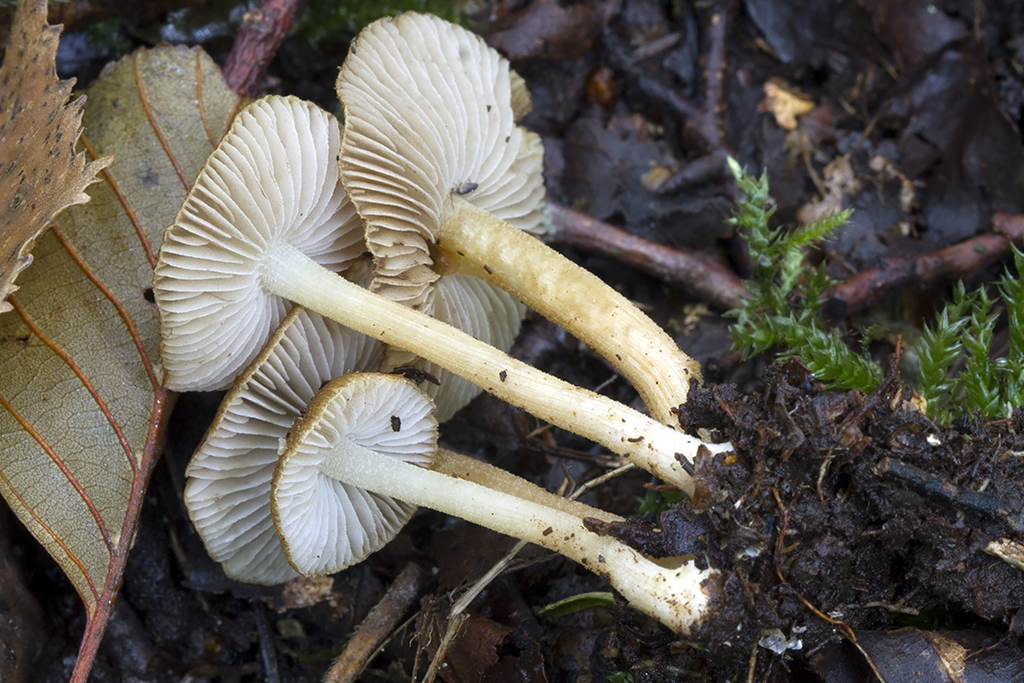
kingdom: Fungi
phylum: Basidiomycota
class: Agaricomycetes
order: Agaricales
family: Inocybaceae
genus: Inocybe
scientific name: Inocybe humilis
